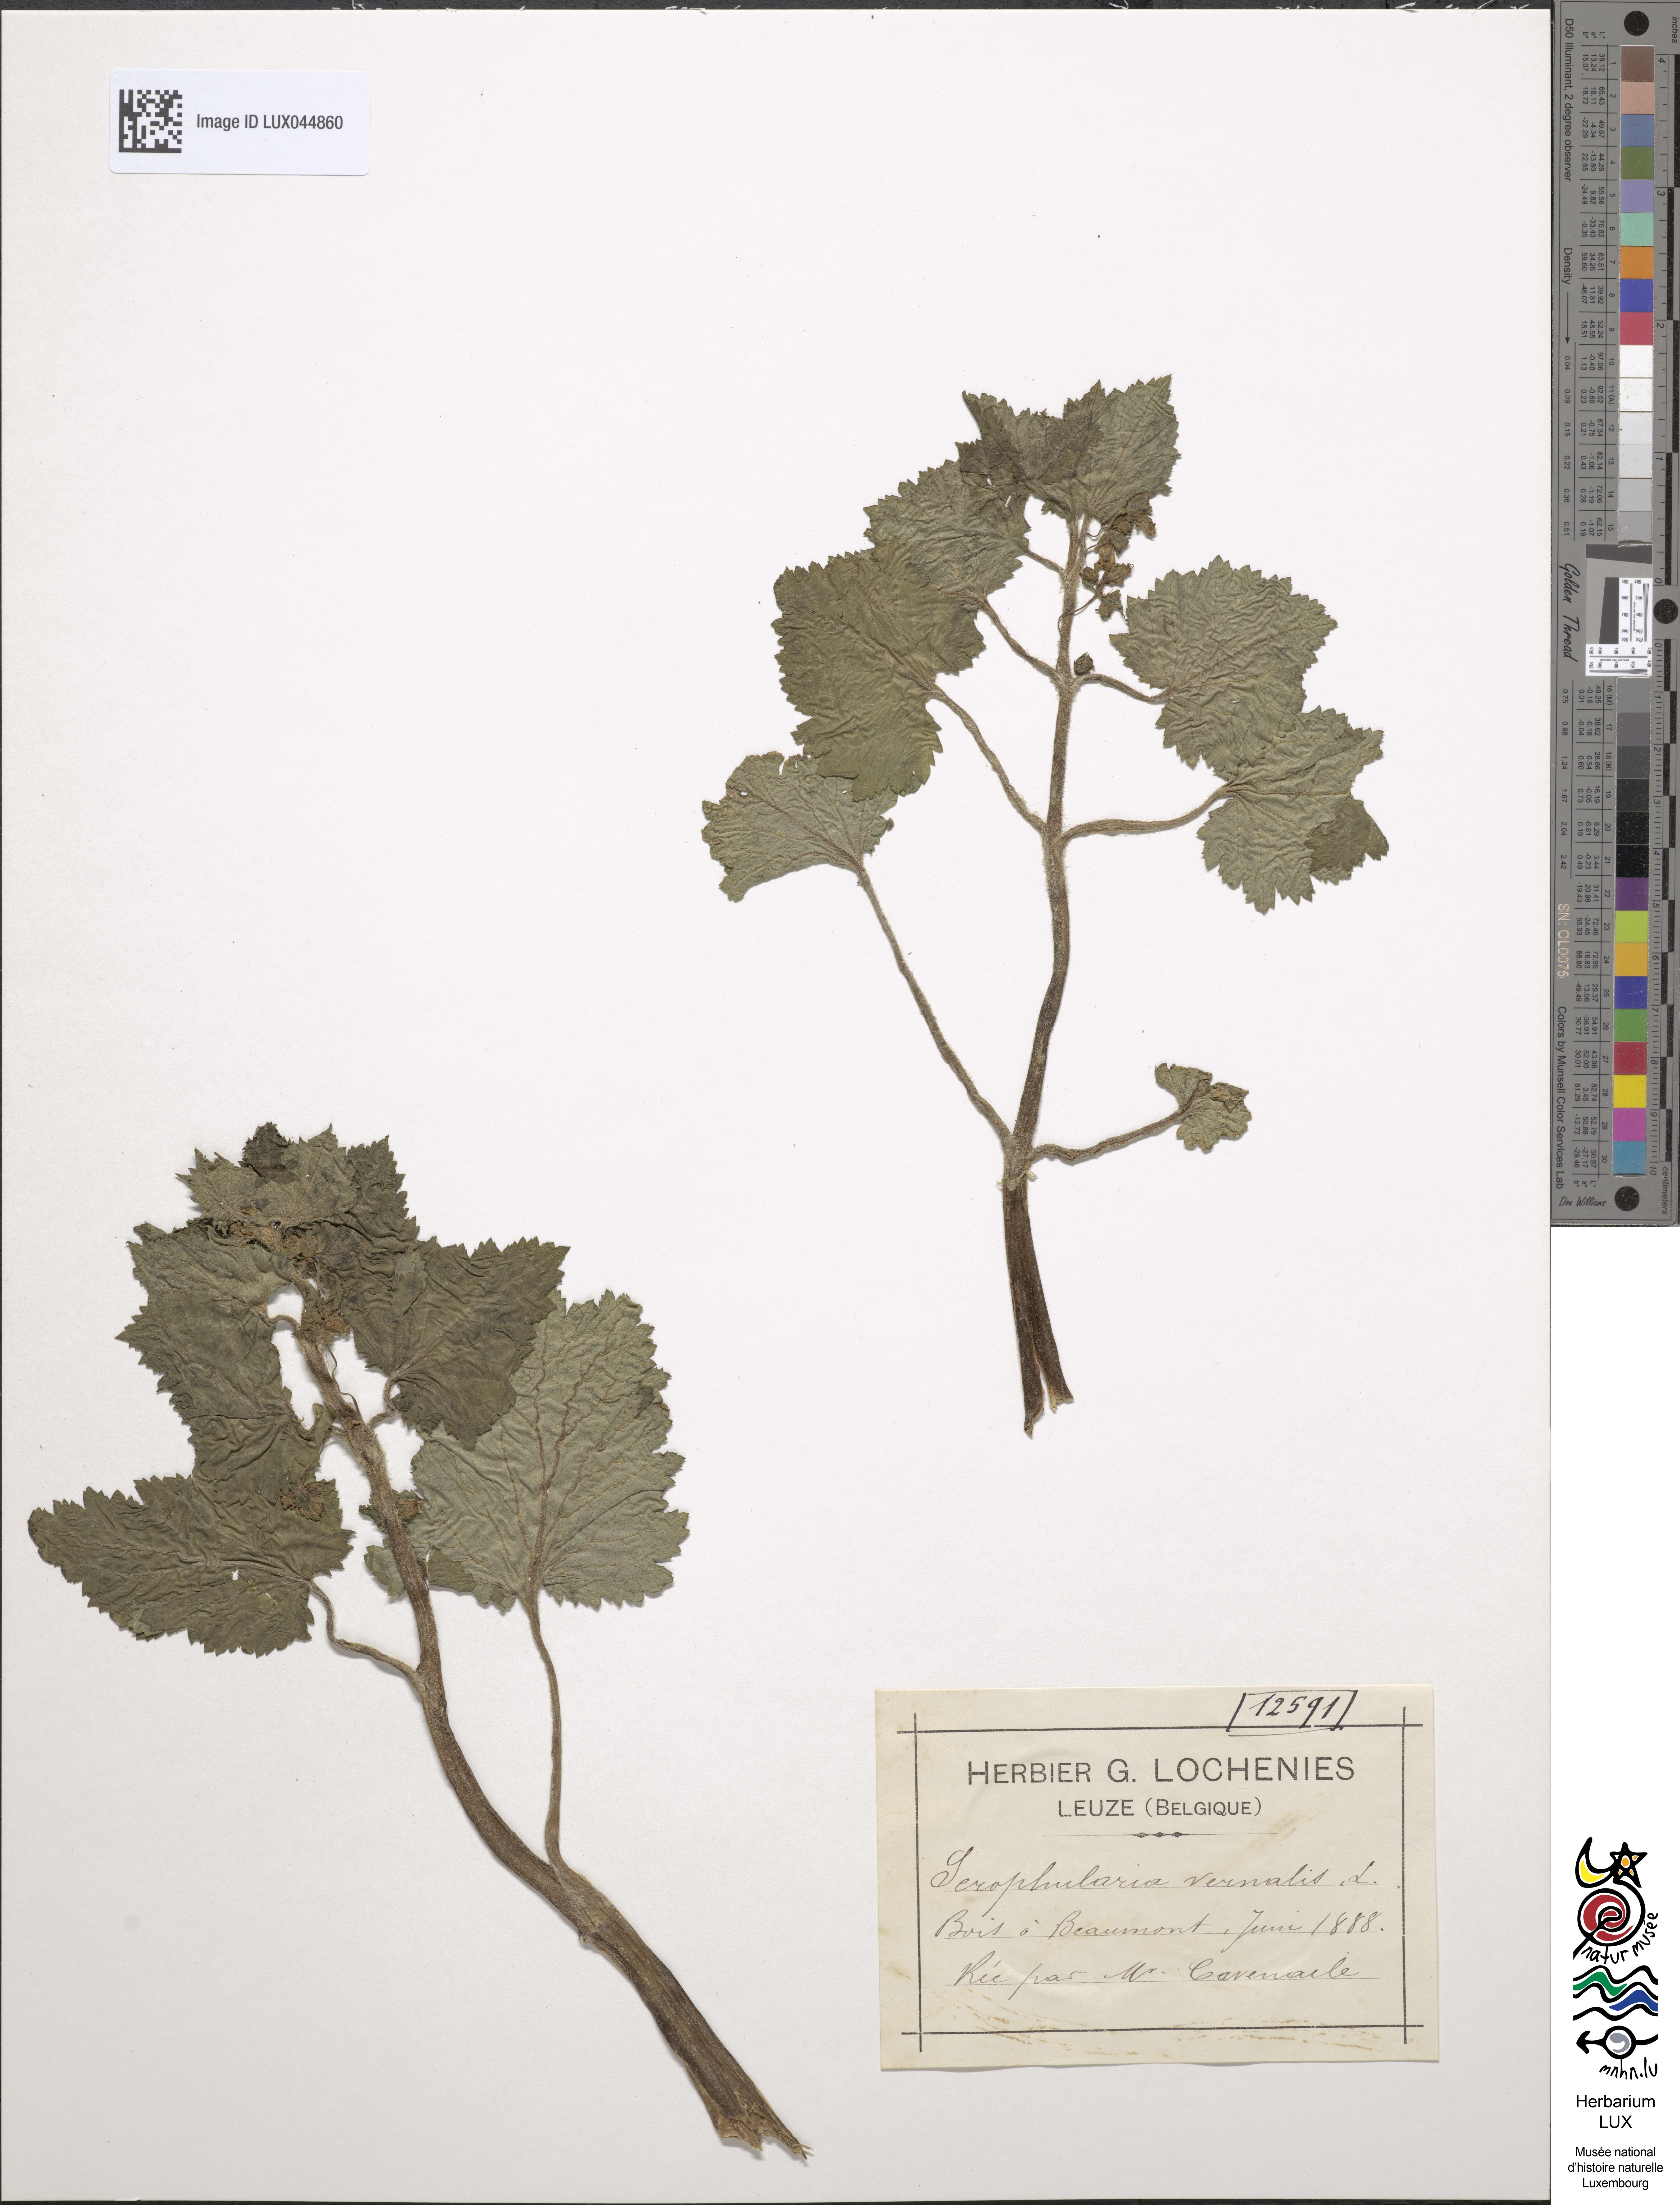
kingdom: Plantae
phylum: Tracheophyta
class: Magnoliopsida
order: Lamiales
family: Scrophulariaceae
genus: Scrophularia
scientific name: Scrophularia vernalis
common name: Yellow figwort
